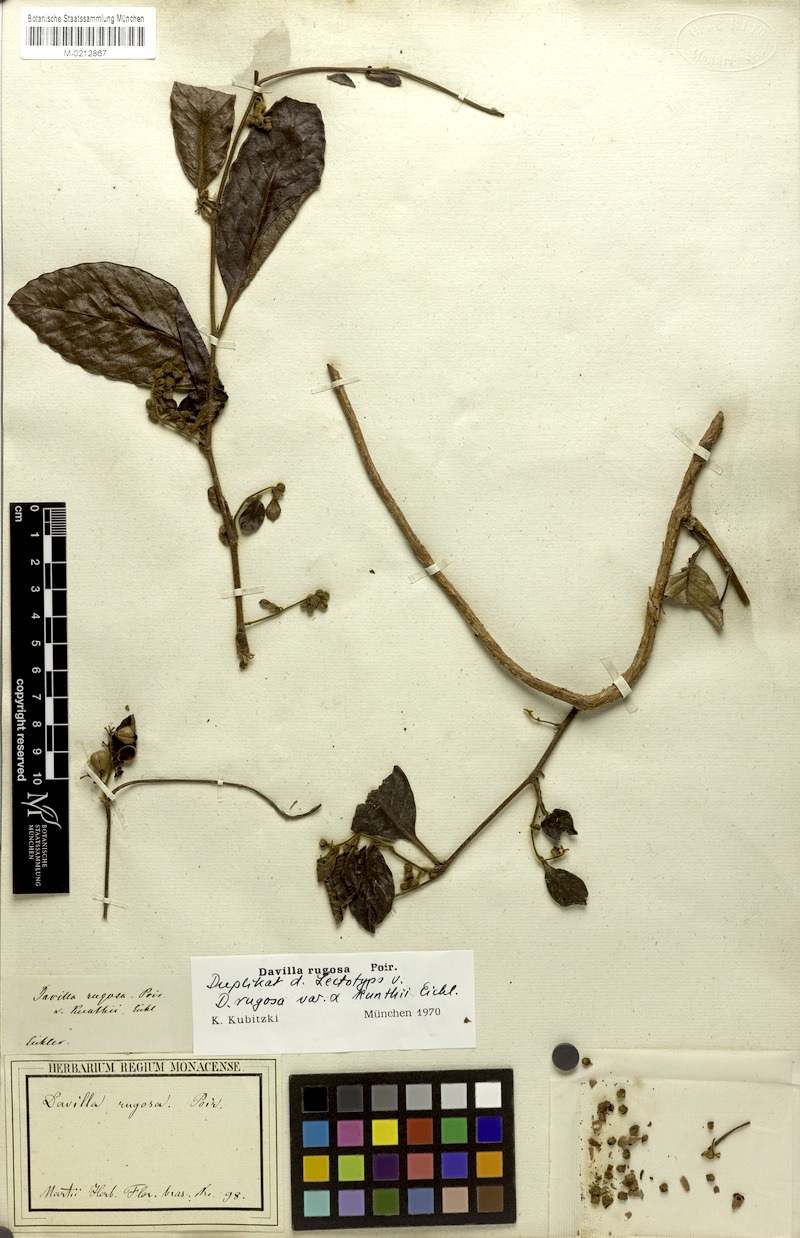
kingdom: Plantae
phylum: Tracheophyta
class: Magnoliopsida
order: Dilleniales
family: Dilleniaceae
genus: Davilla
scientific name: Davilla rugosa
